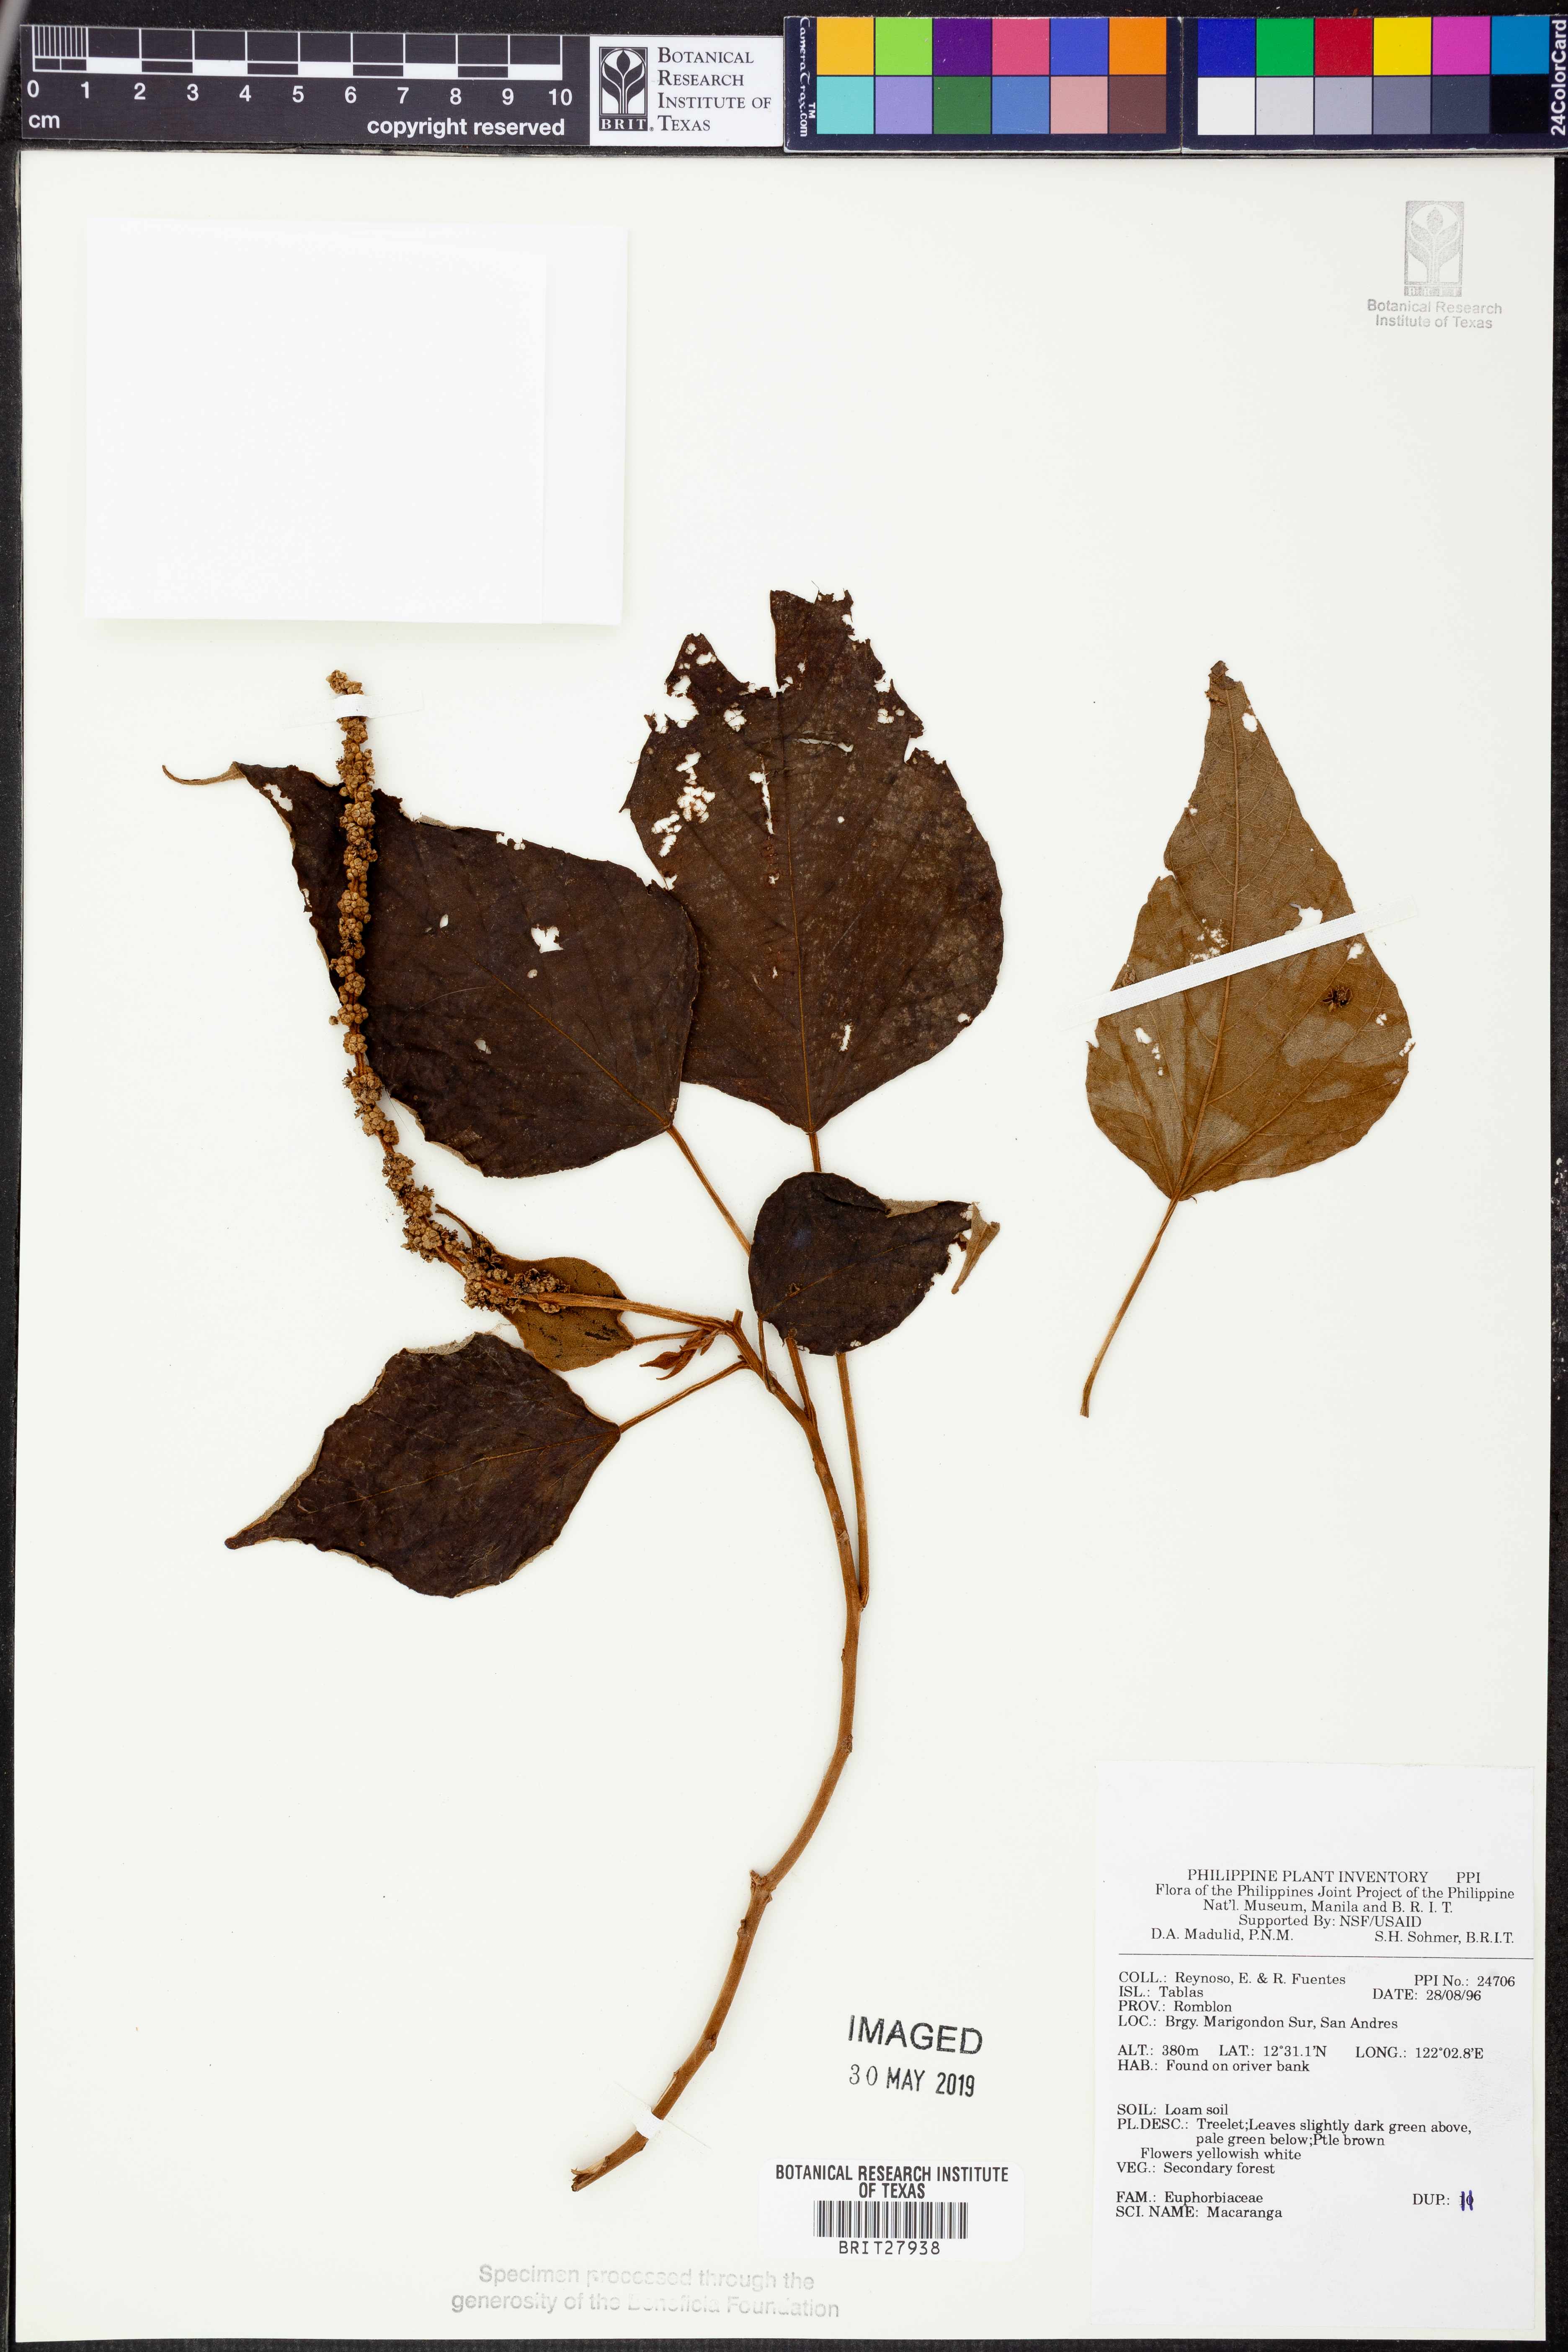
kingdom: Plantae
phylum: Tracheophyta
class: Magnoliopsida
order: Malpighiales
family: Euphorbiaceae
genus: Macaranga
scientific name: Macaranga
